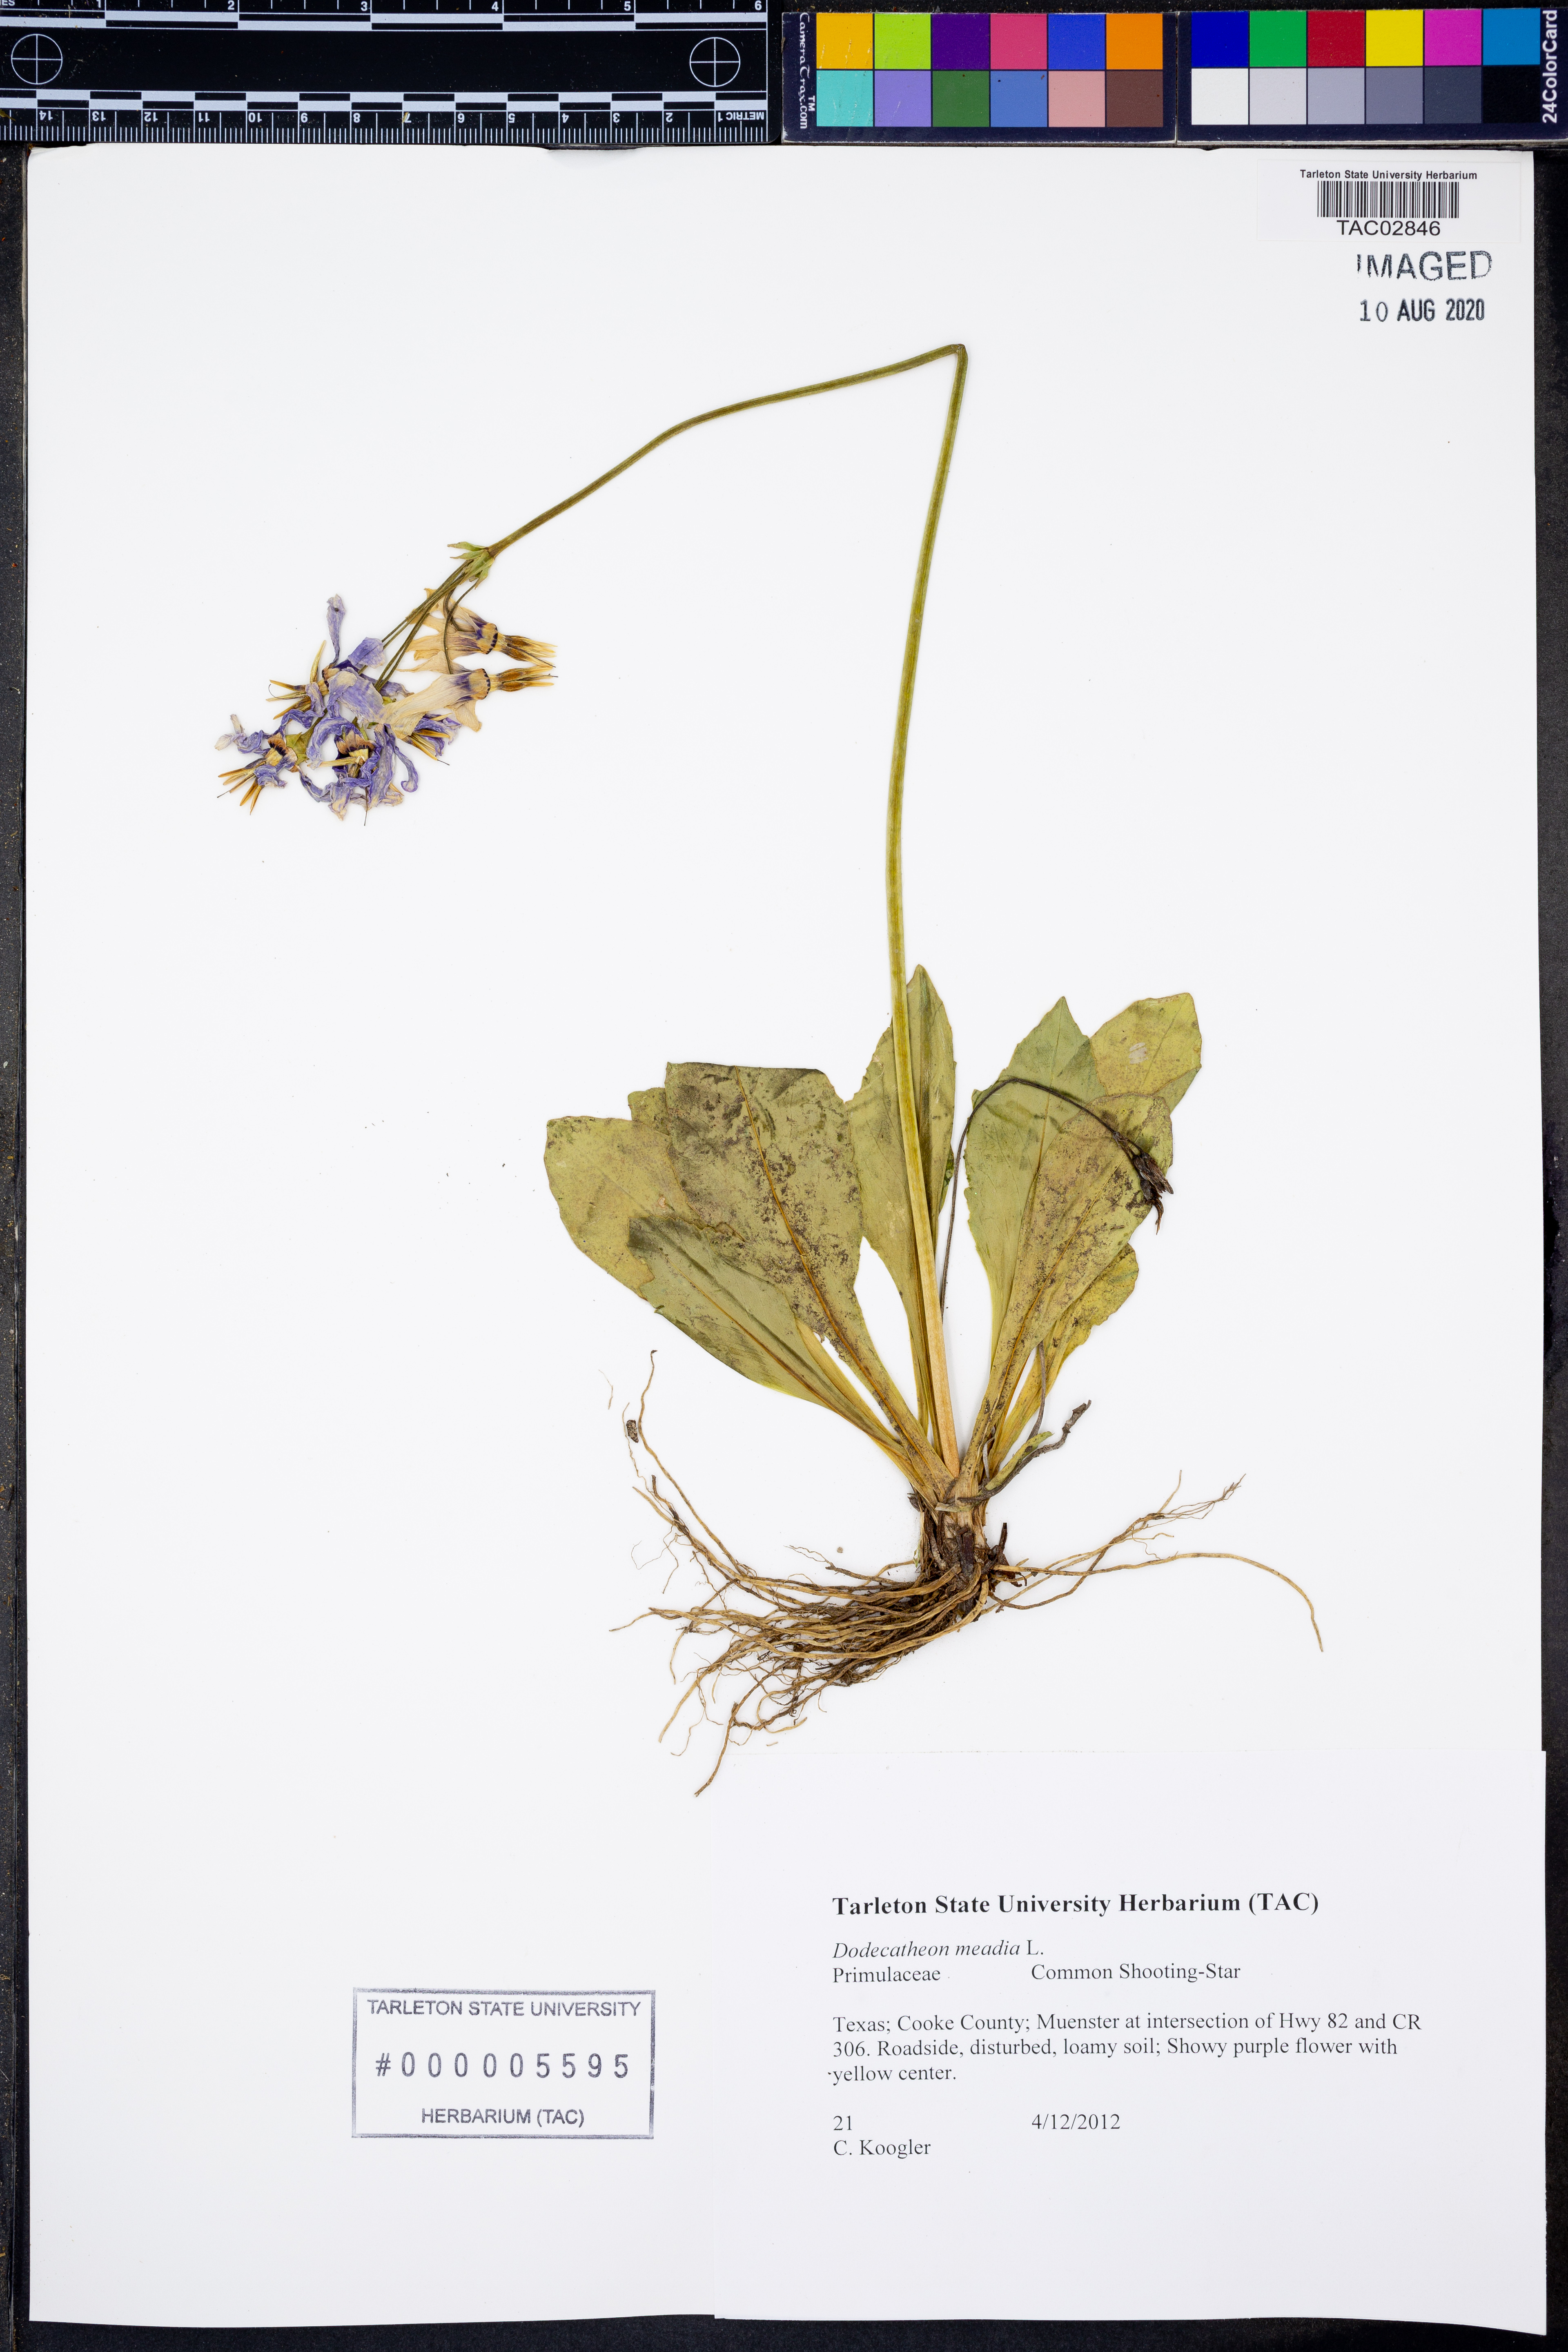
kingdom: Plantae
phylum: Tracheophyta
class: Magnoliopsida
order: Ericales
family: Primulaceae
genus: Dodecatheon
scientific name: Dodecatheon meadia
